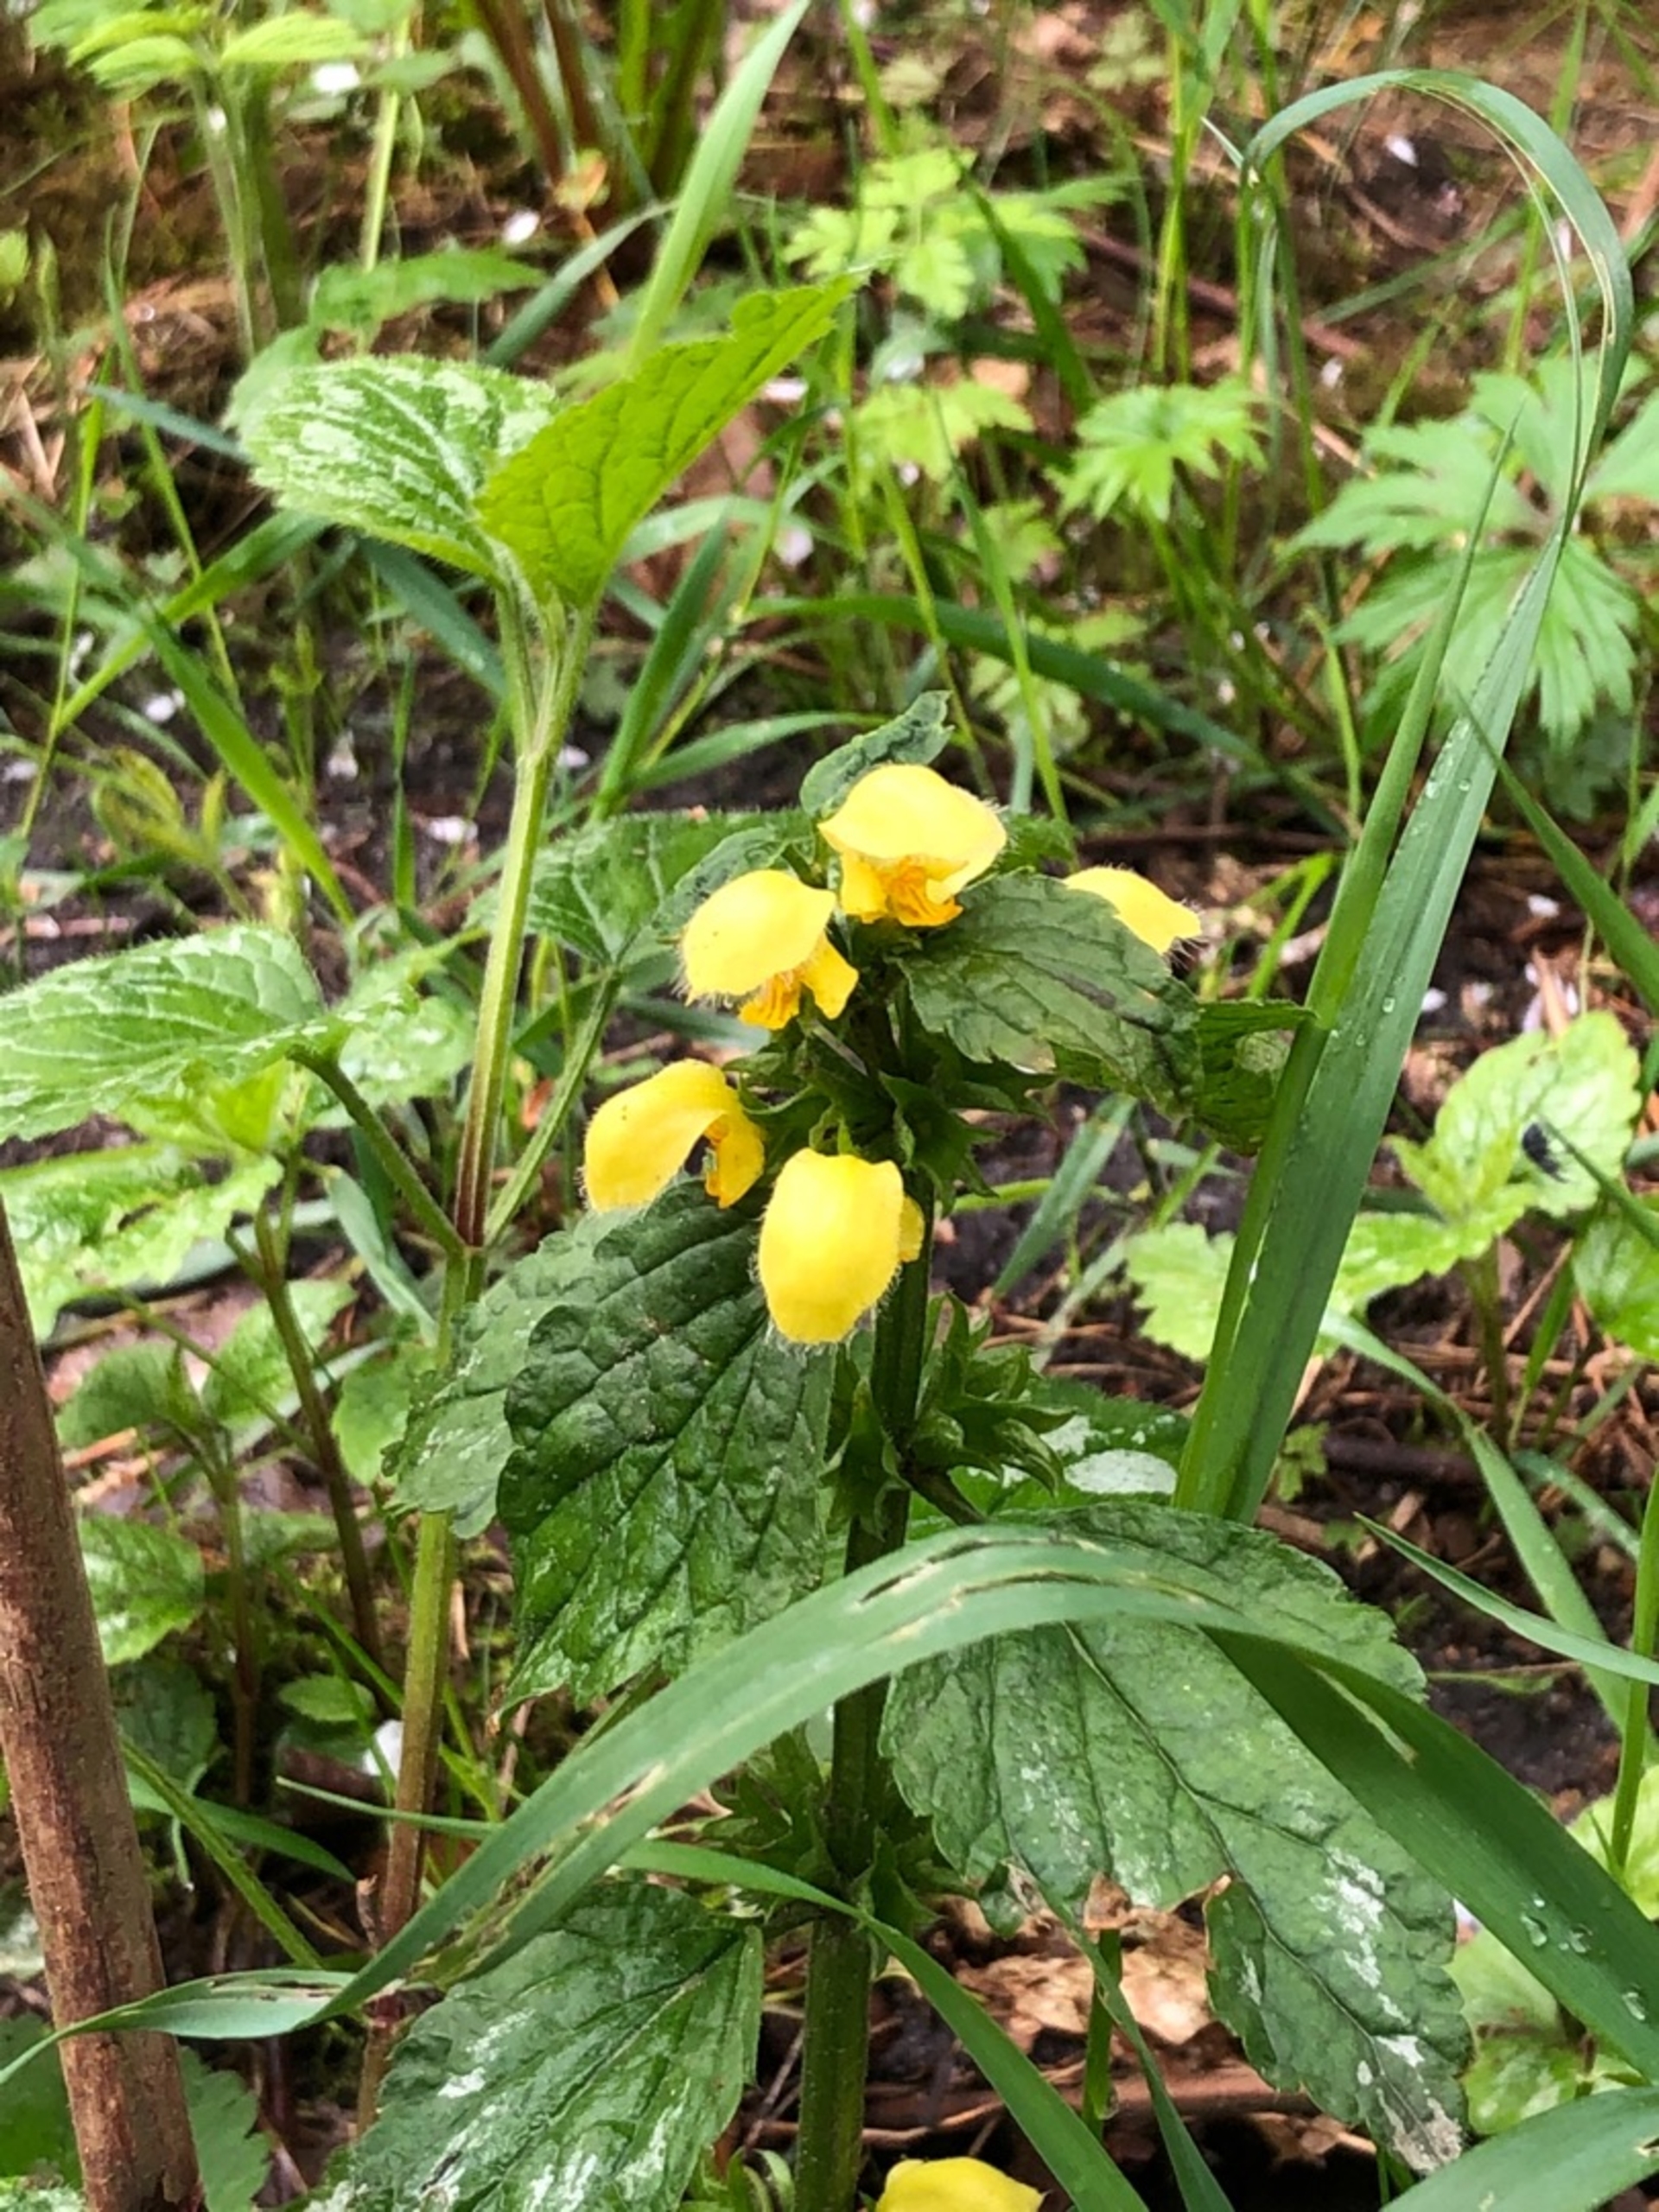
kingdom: Plantae
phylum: Tracheophyta
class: Magnoliopsida
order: Lamiales
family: Lamiaceae
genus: Lamium
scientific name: Lamium galeobdolon
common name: Guldnælde
